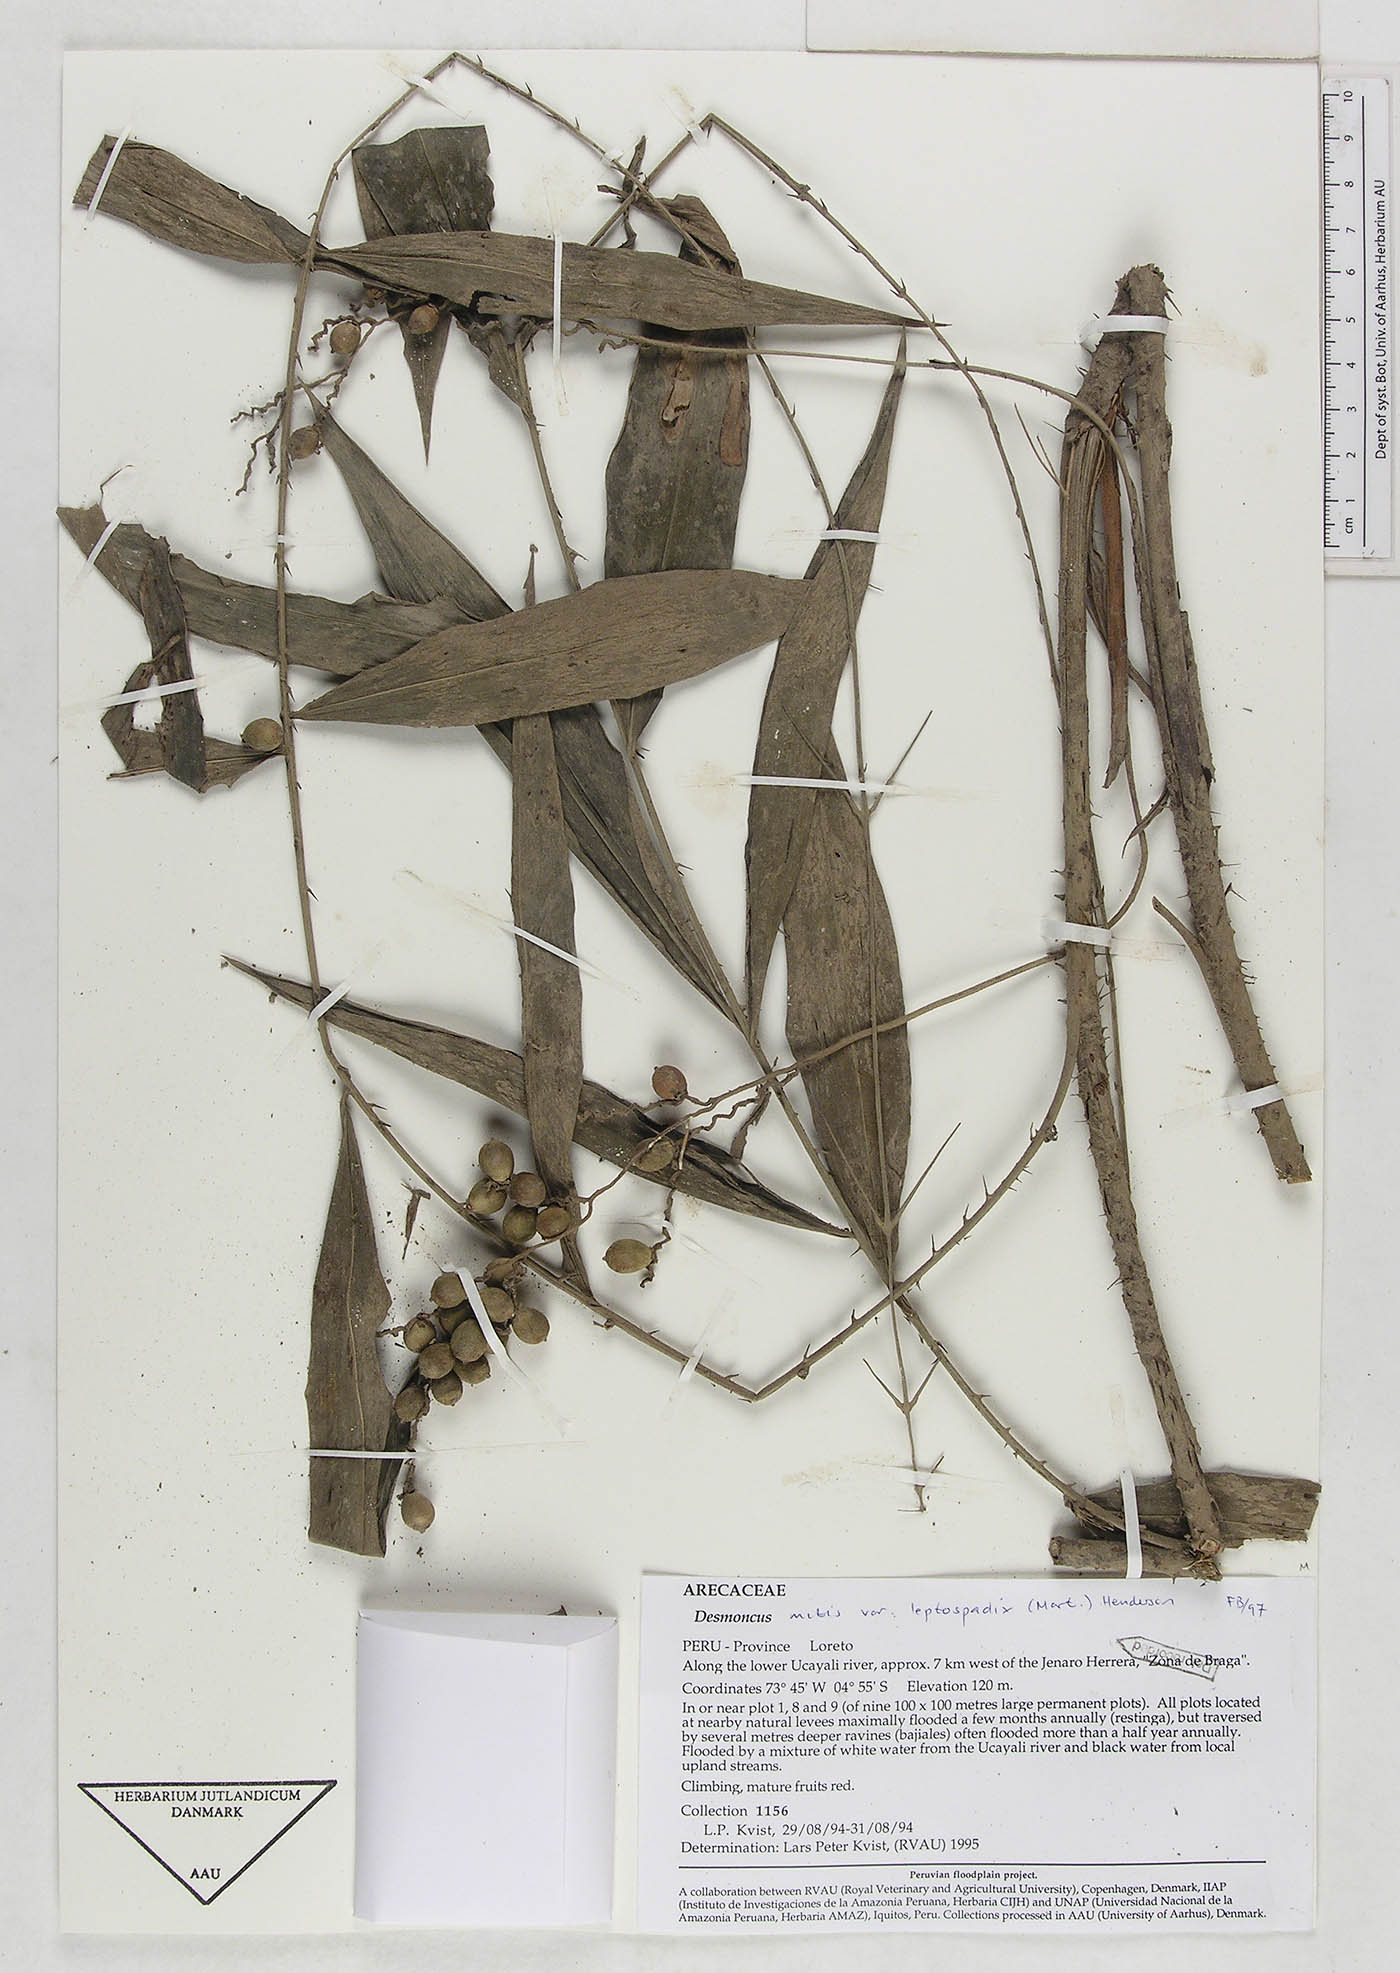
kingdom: Plantae
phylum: Tracheophyta
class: Liliopsida
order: Arecales
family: Arecaceae
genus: Desmoncus
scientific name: Desmoncus mitis
